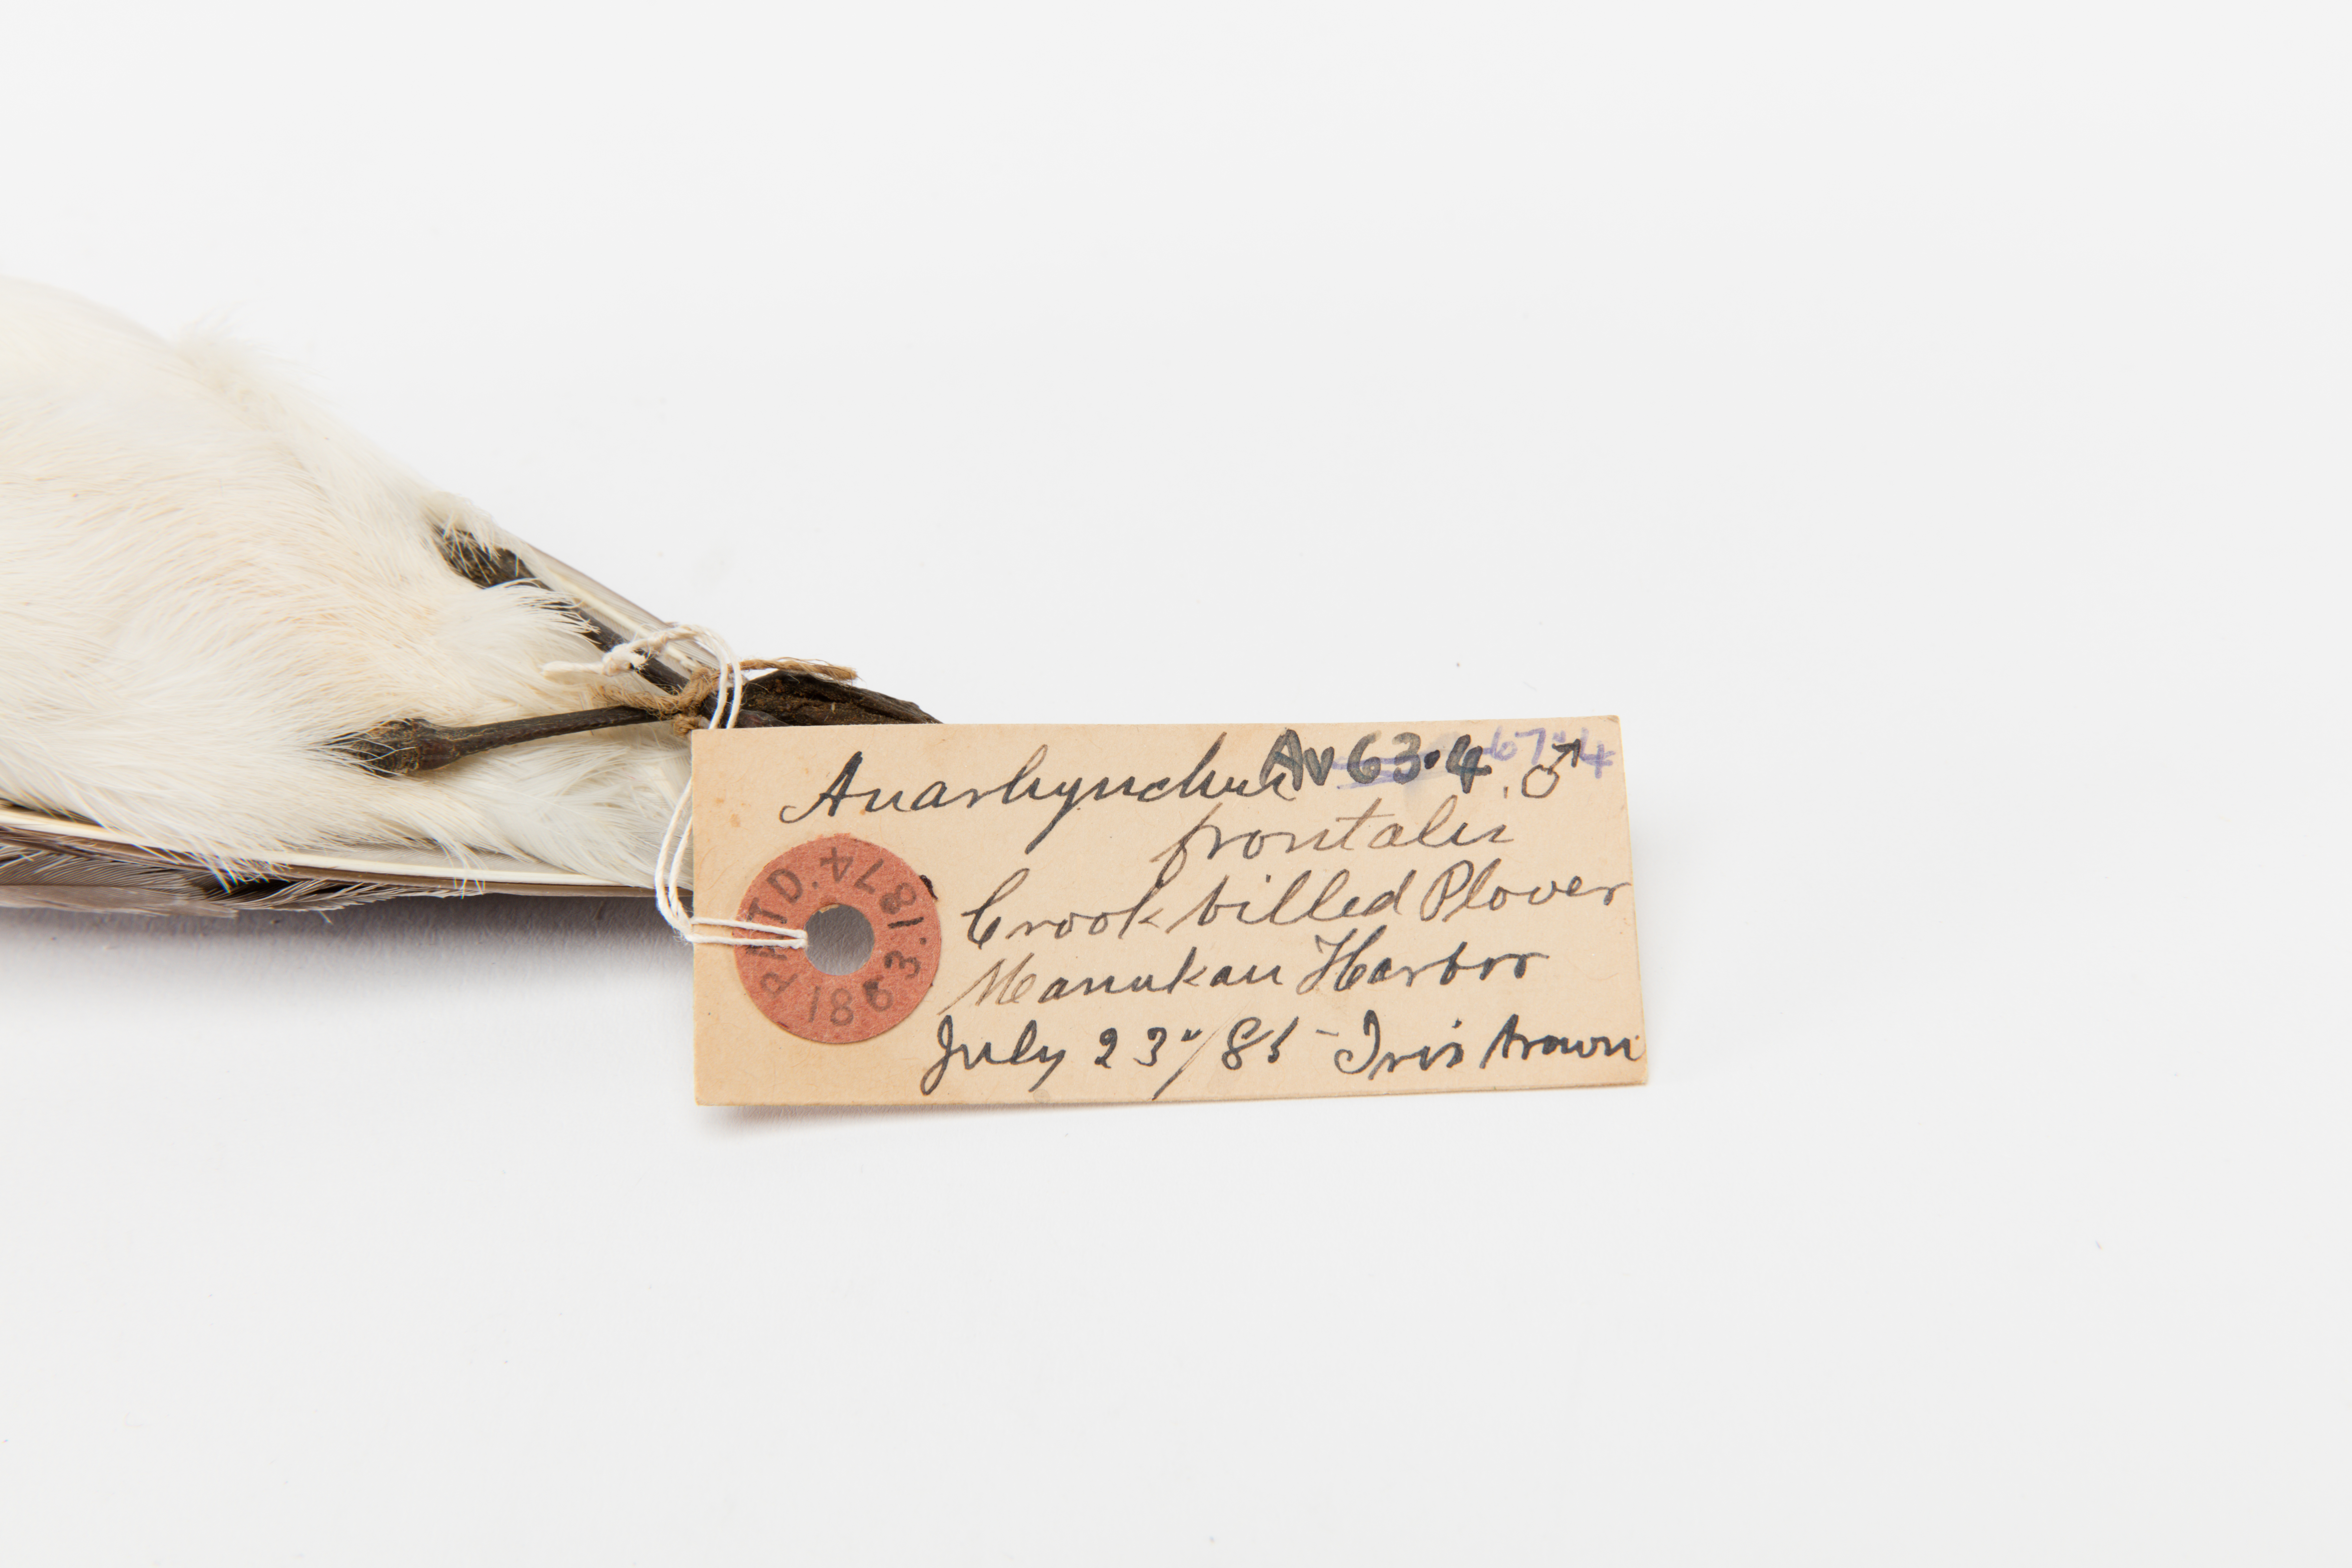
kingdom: Animalia
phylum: Chordata
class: Aves
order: Charadriiformes
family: Charadriidae
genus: Charadrius
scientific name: Charadrius frontalis
